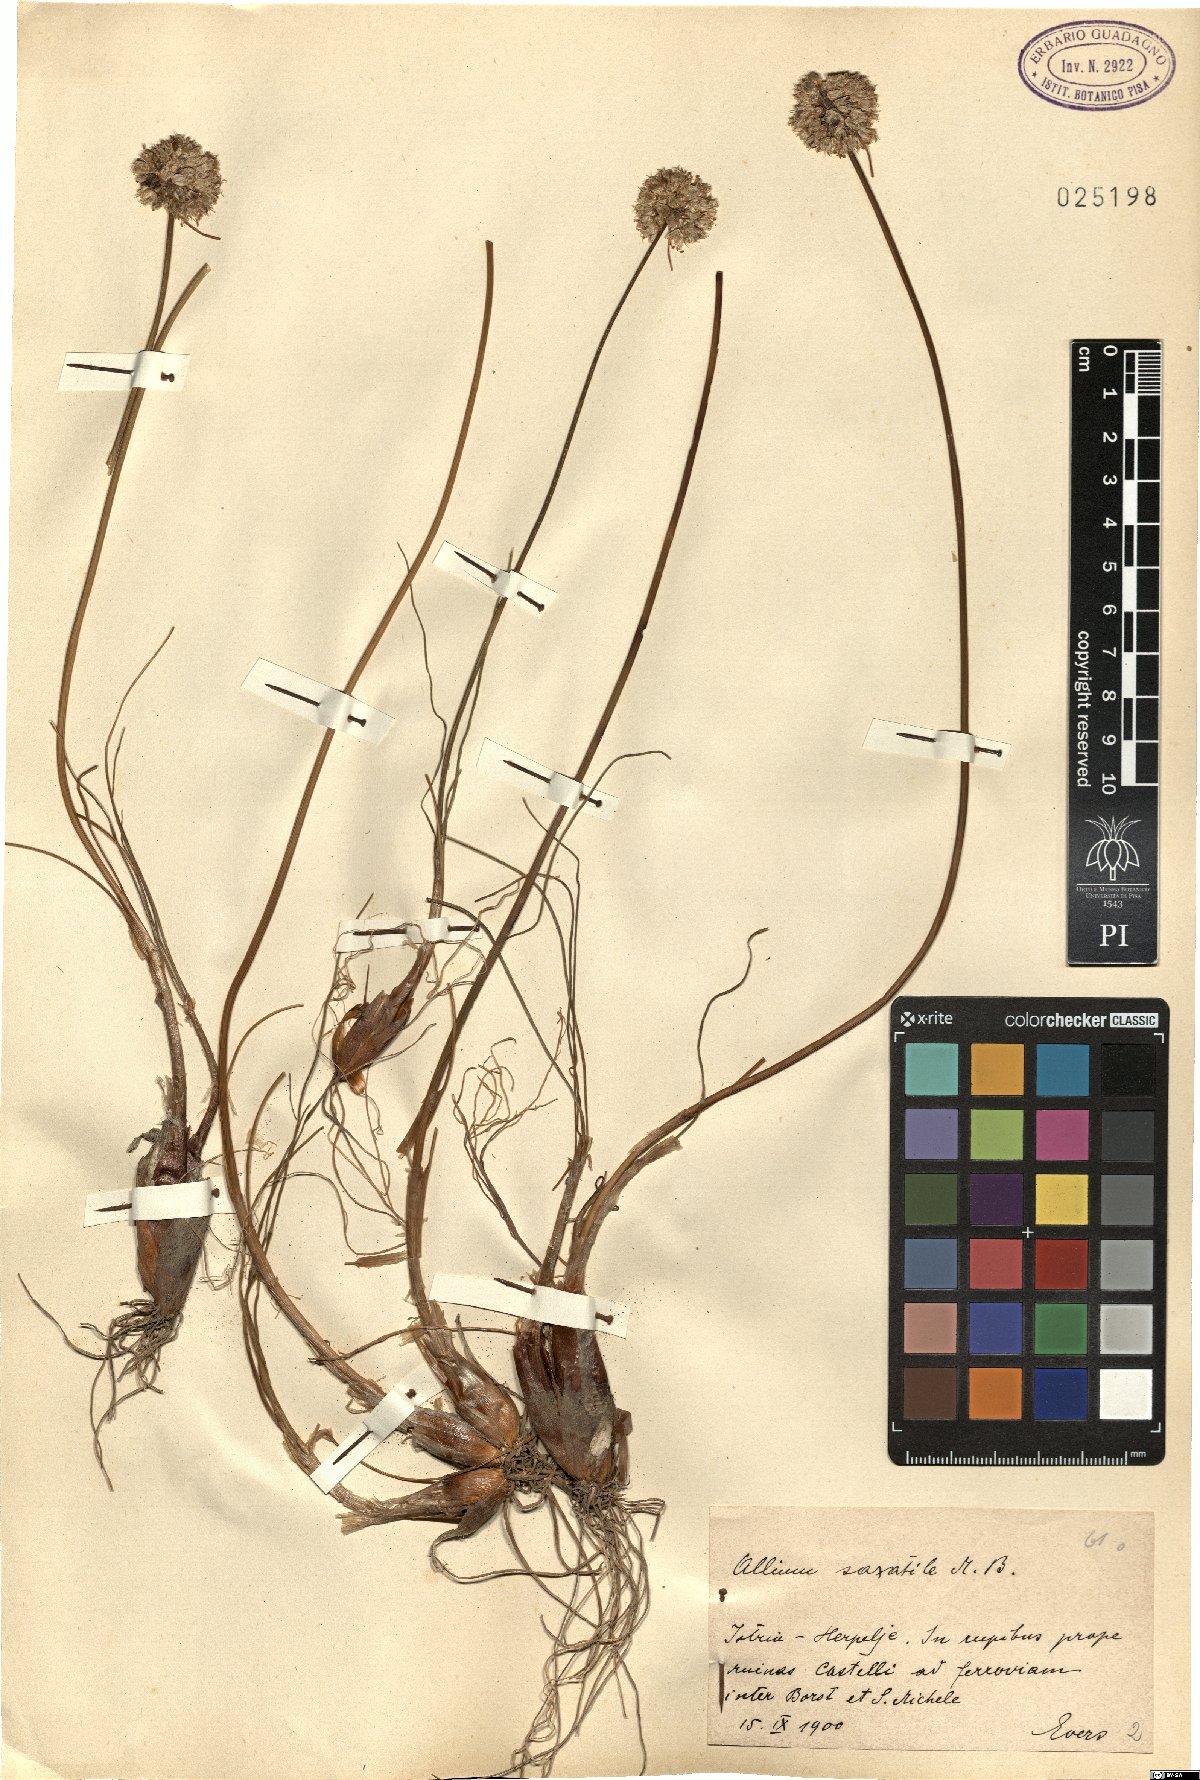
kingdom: Plantae
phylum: Tracheophyta
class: Liliopsida
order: Asparagales
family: Amaryllidaceae
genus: Allium
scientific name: Allium saxatile
